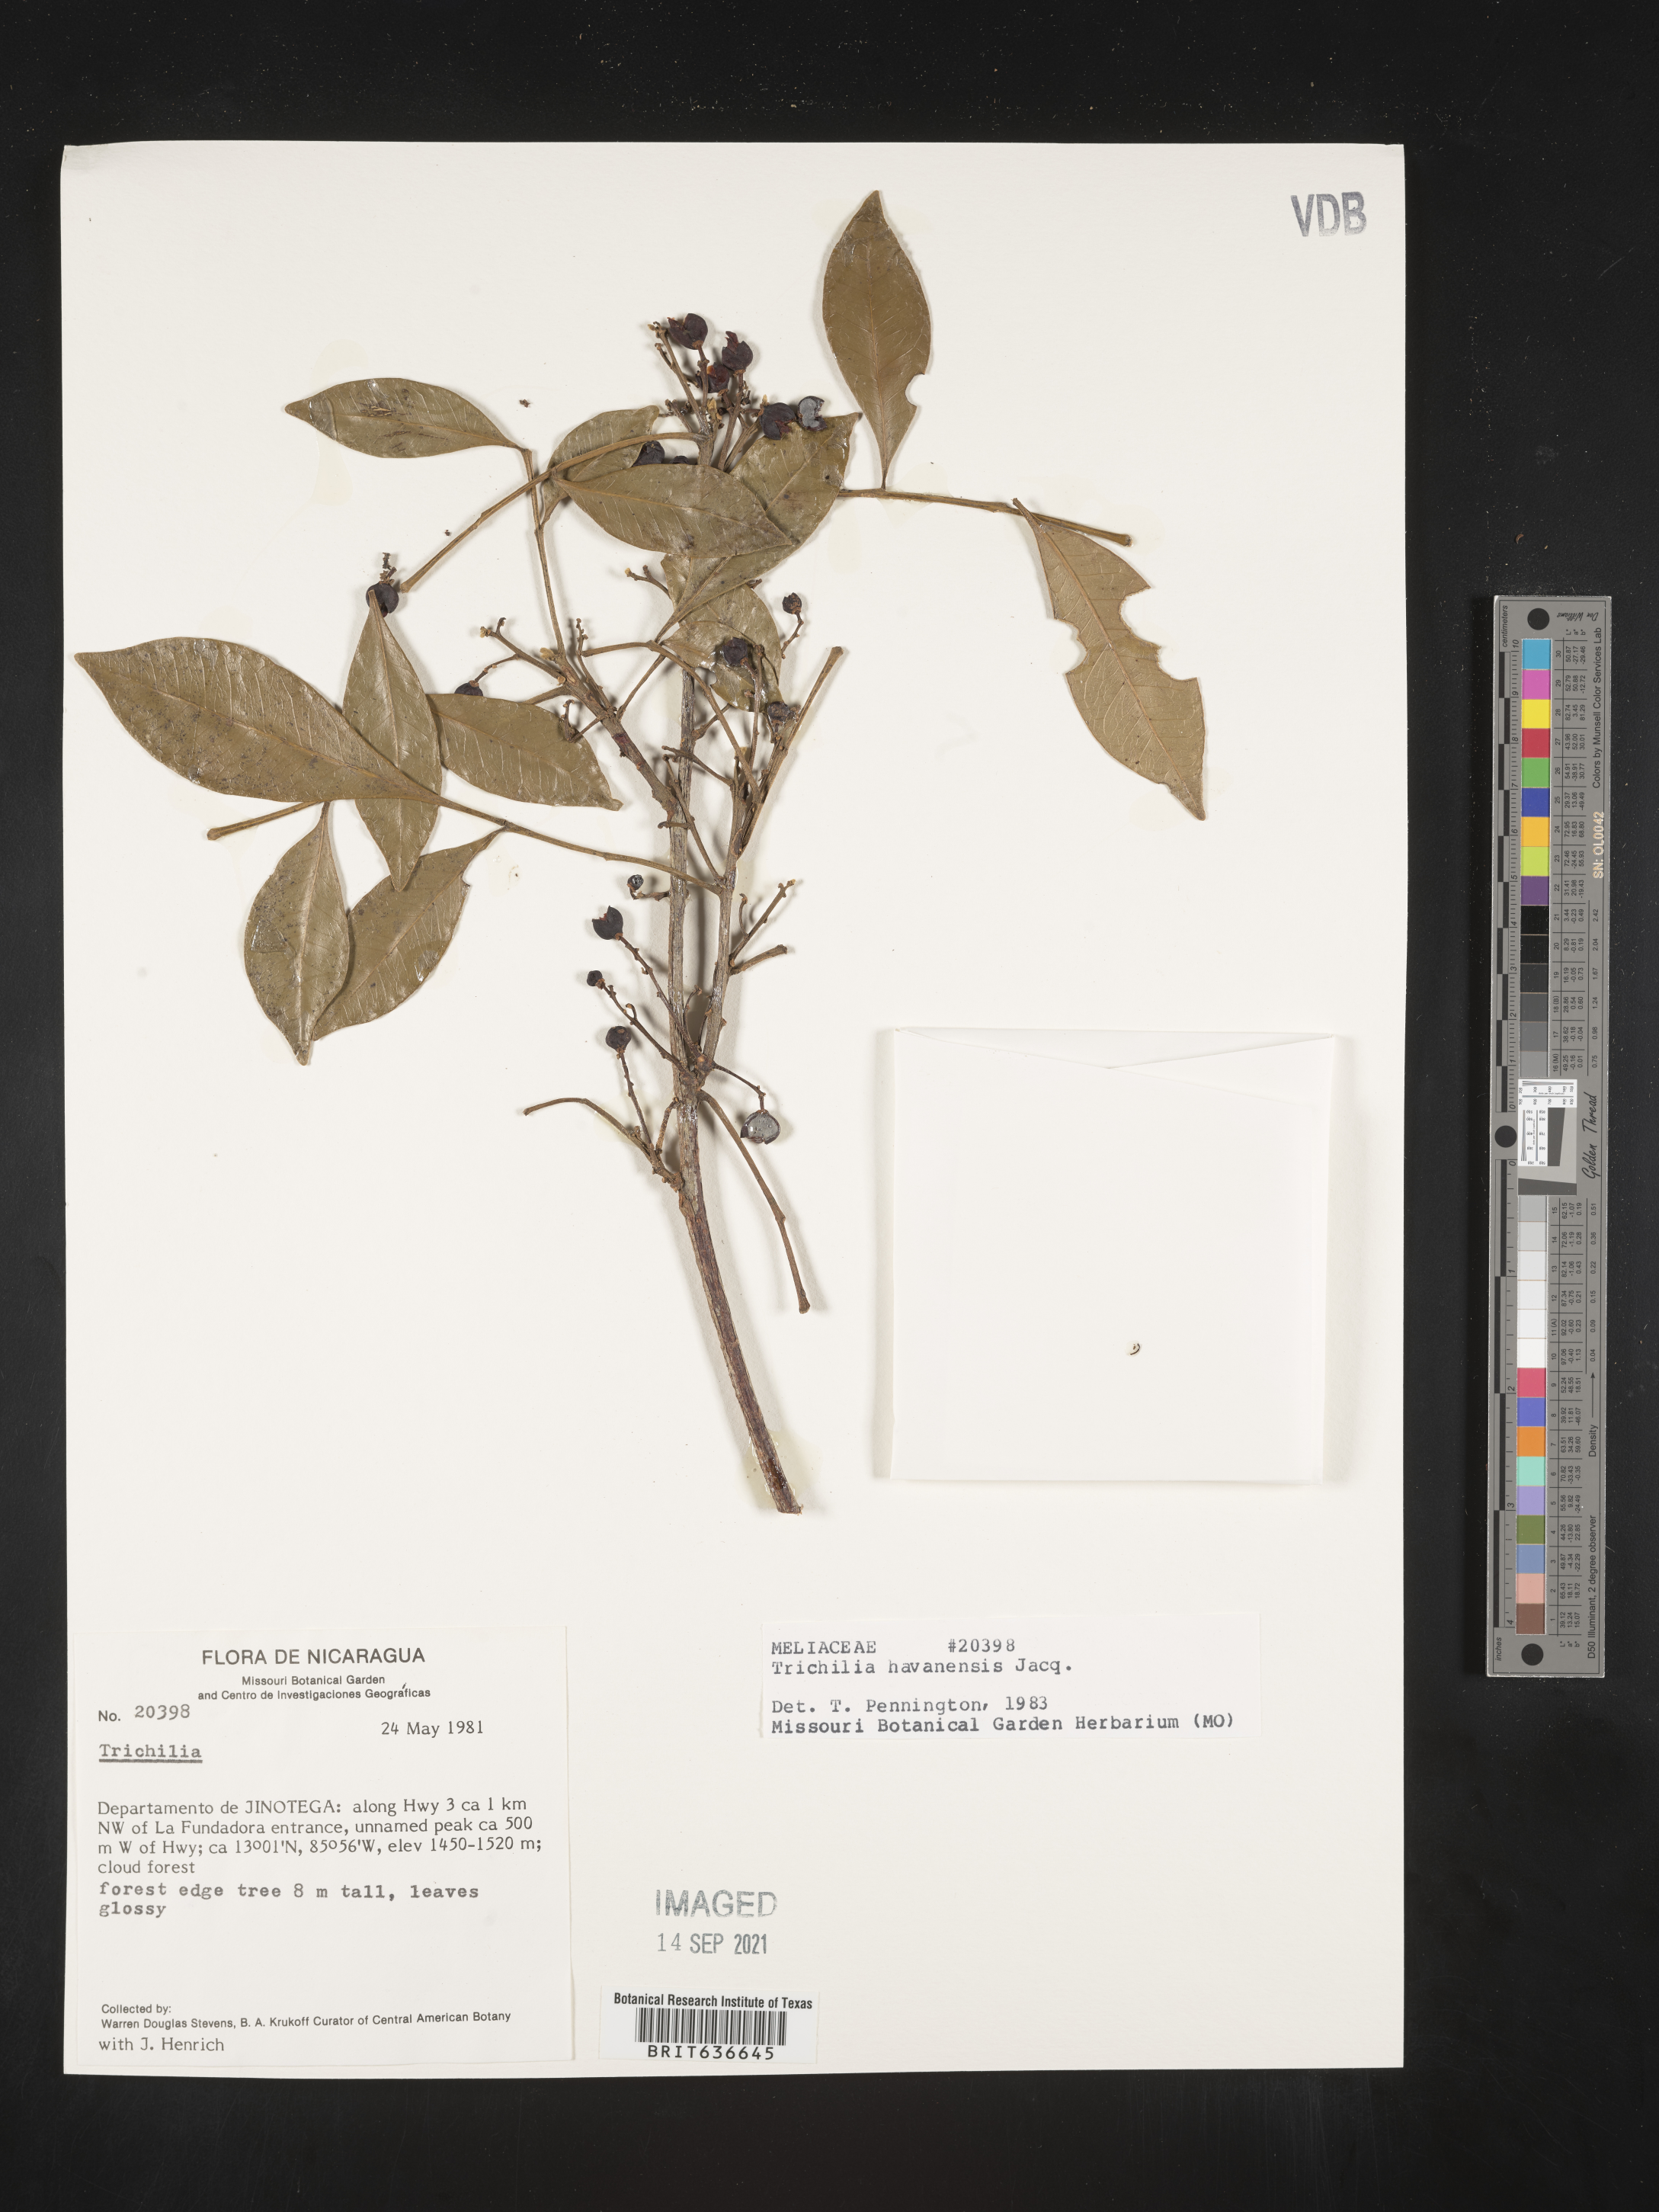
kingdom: Plantae
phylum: Tracheophyta
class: Magnoliopsida
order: Sapindales
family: Meliaceae
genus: Trichilia
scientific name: Trichilia
